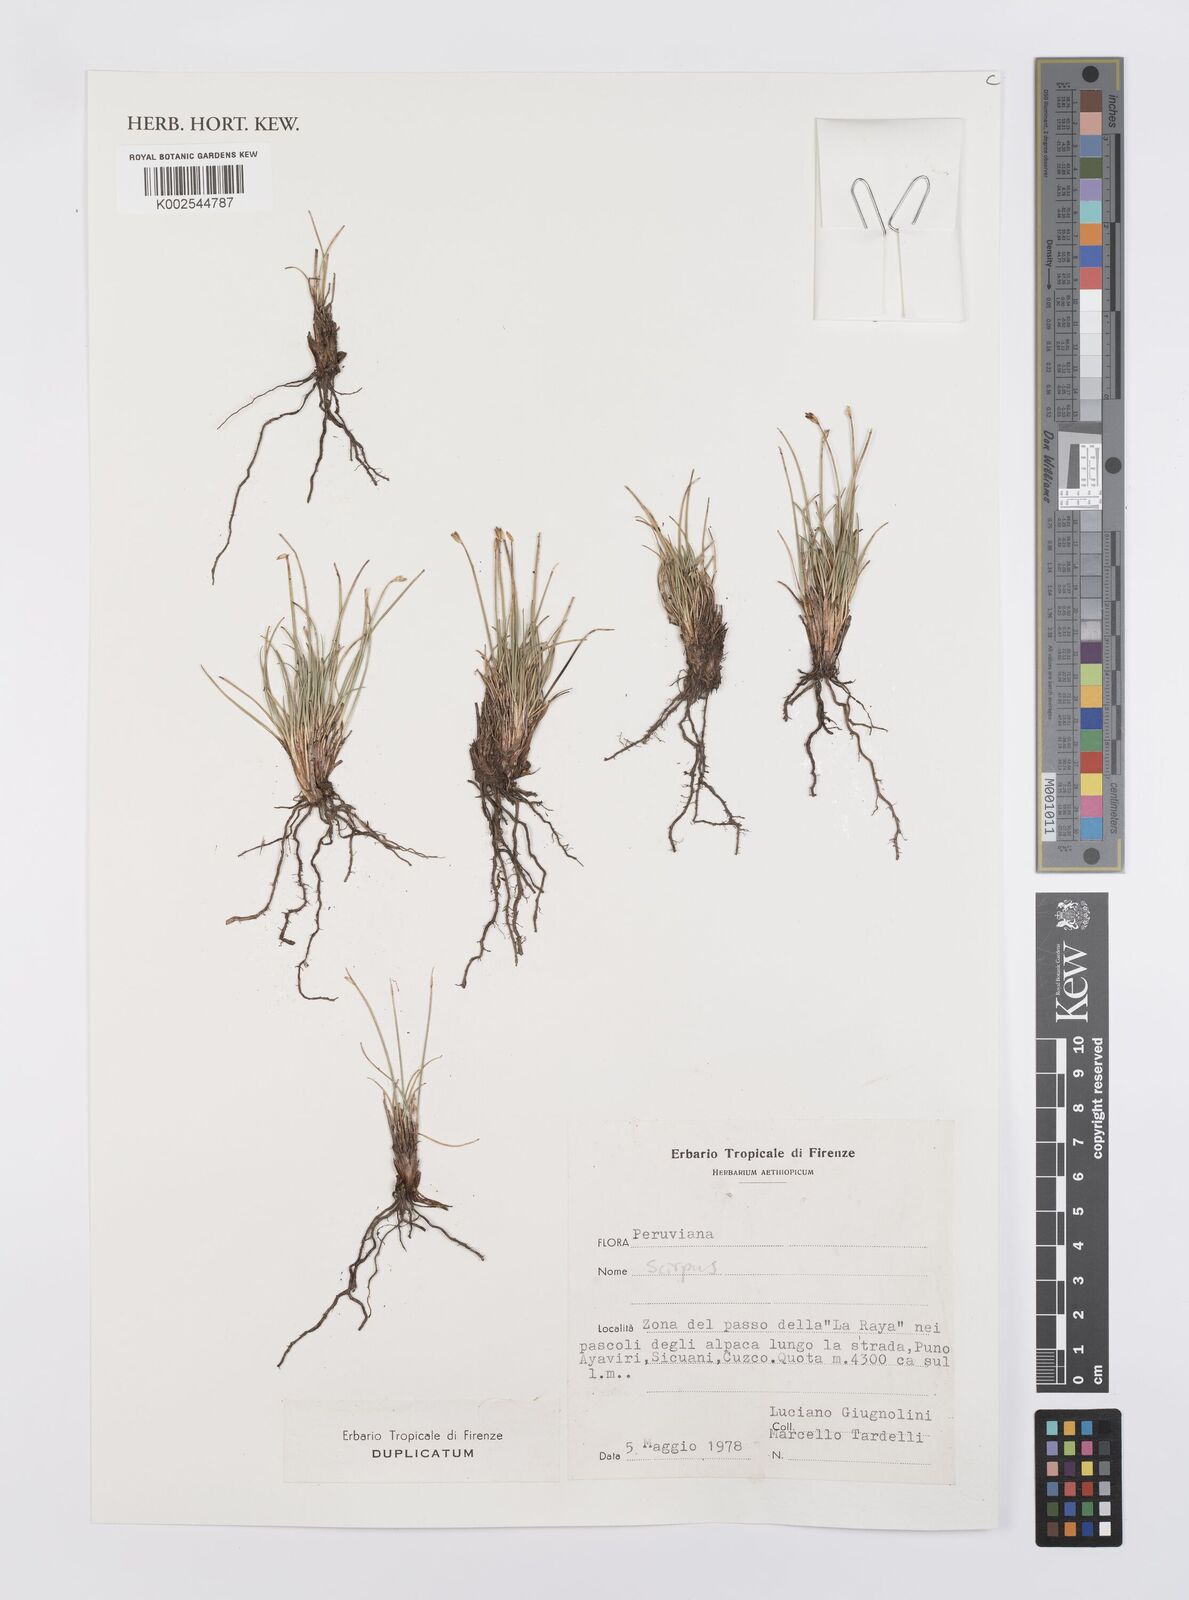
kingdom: Plantae
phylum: Tracheophyta
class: Liliopsida
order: Poales
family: Cyperaceae
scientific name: Cyperaceae
